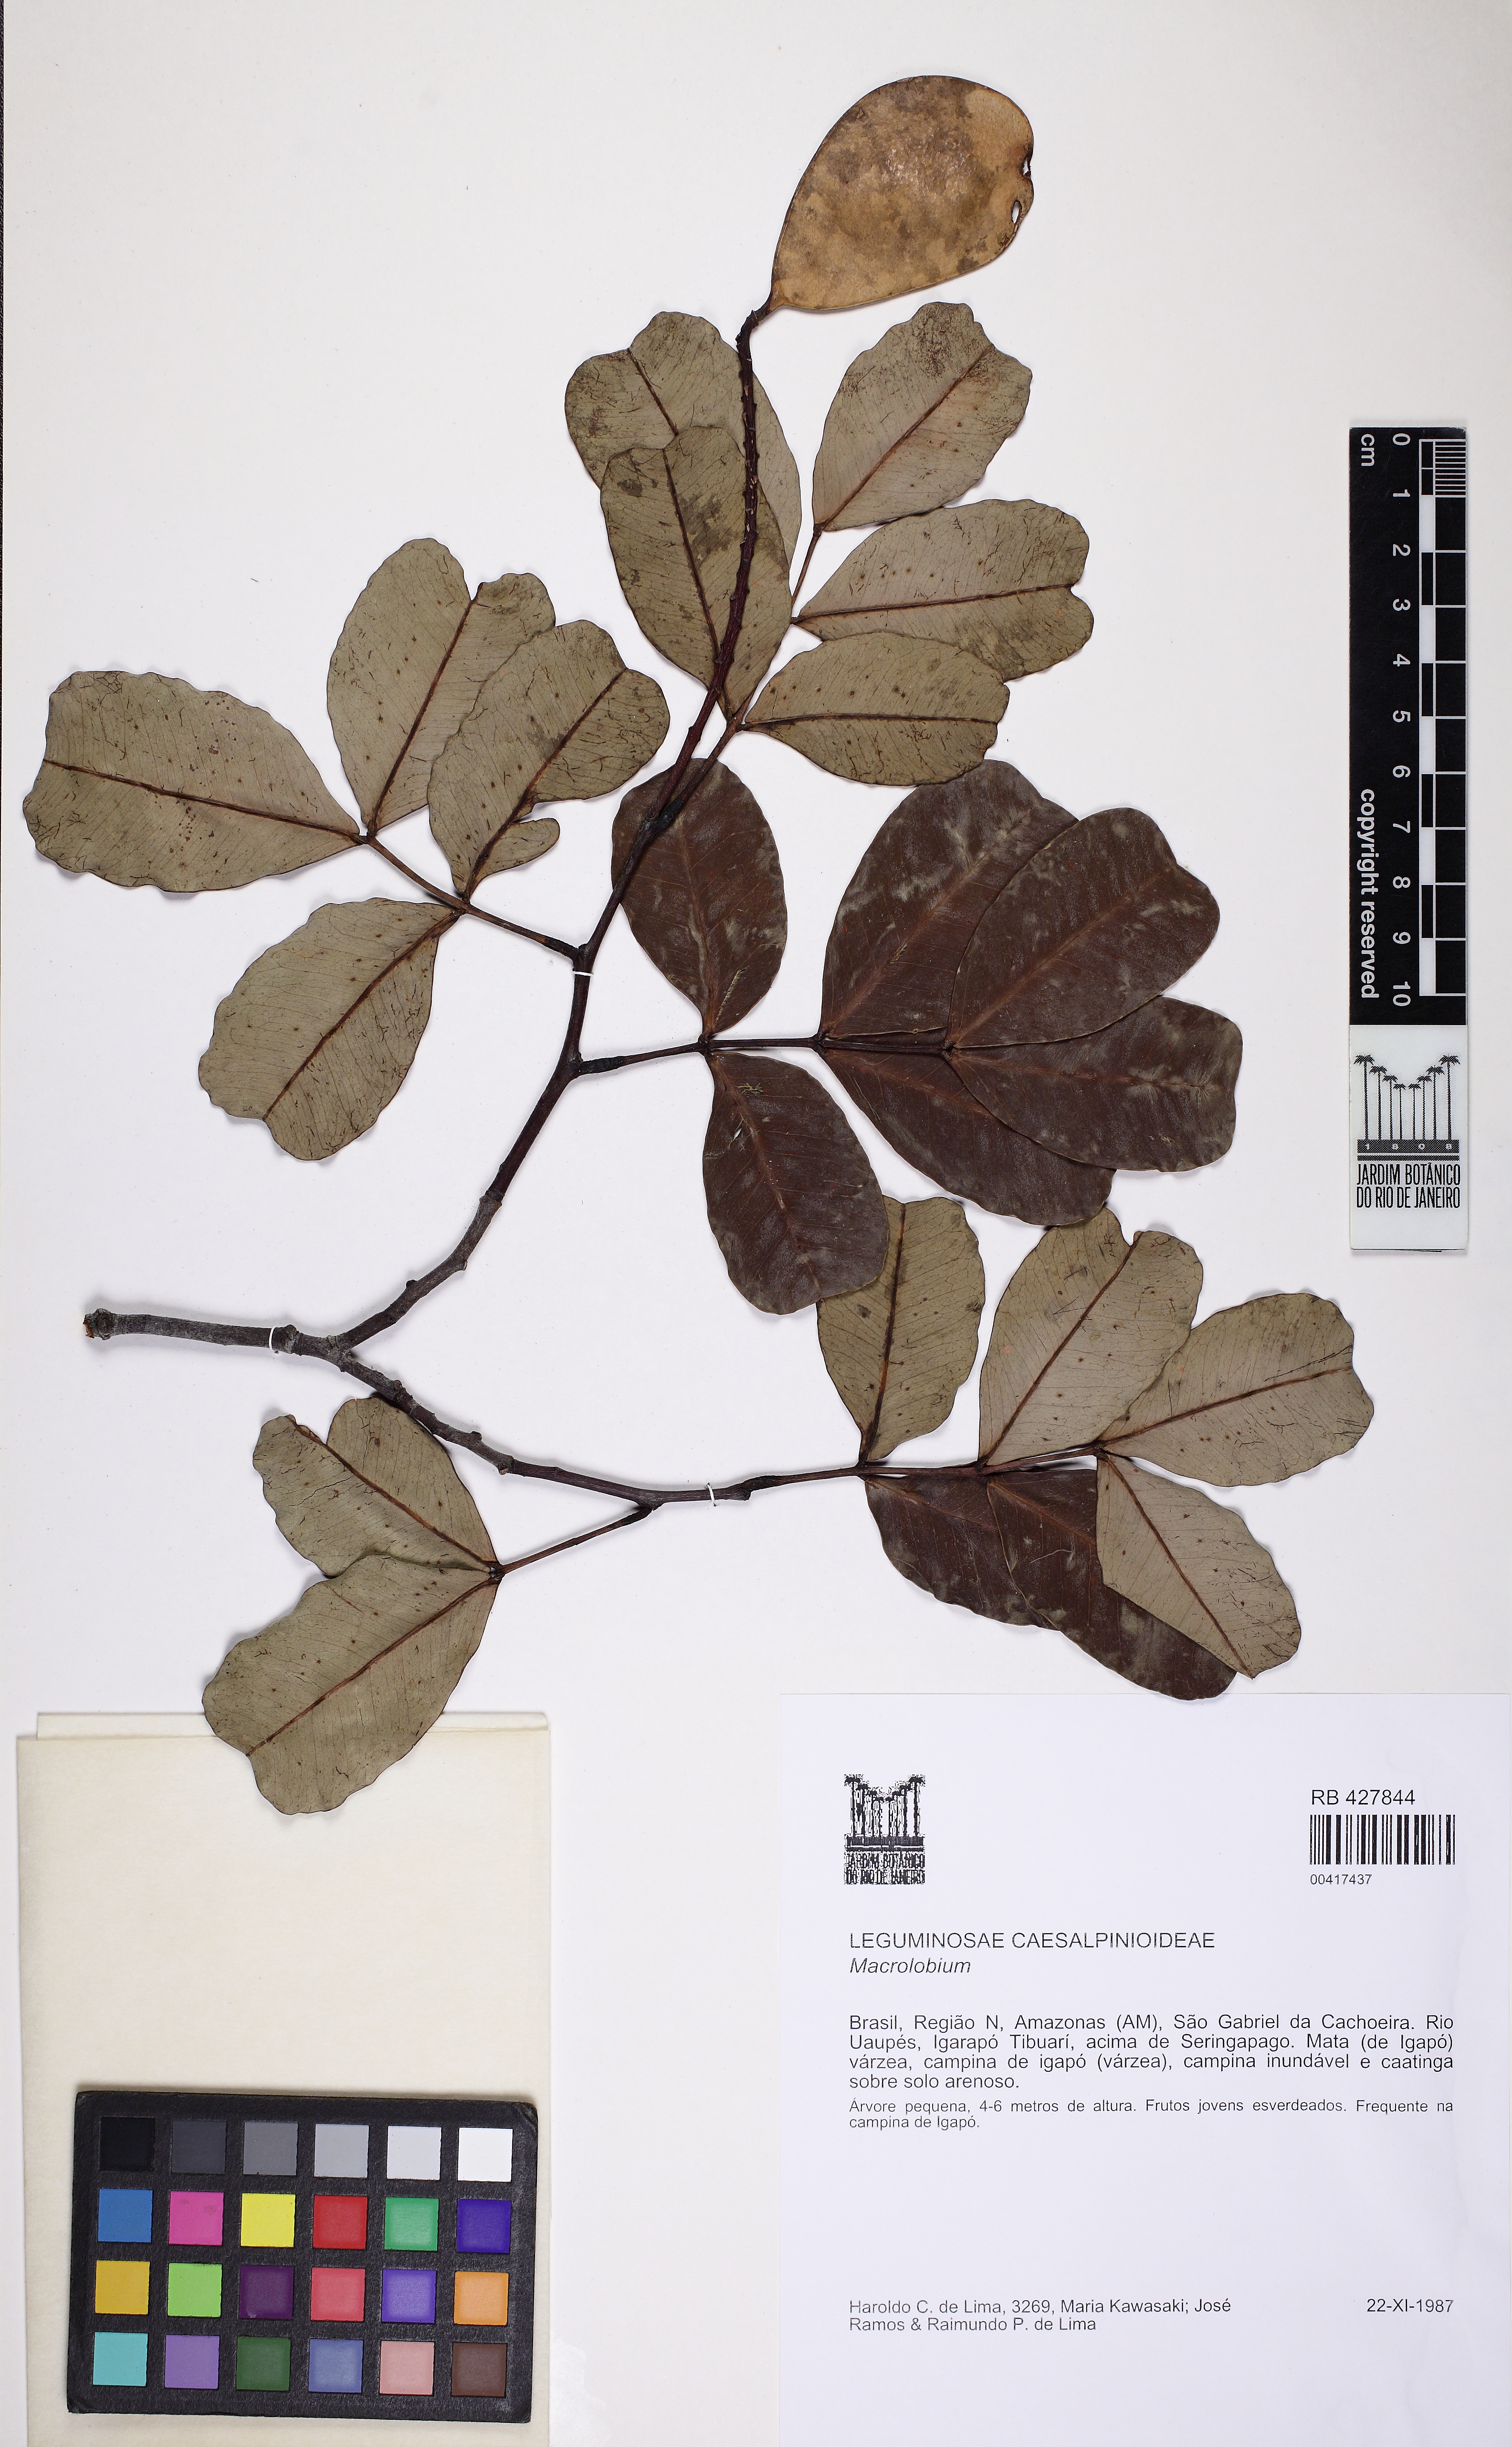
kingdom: Plantae
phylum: Tracheophyta
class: Magnoliopsida
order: Fabales
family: Fabaceae
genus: Macrolobium
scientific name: Macrolobium montanum
